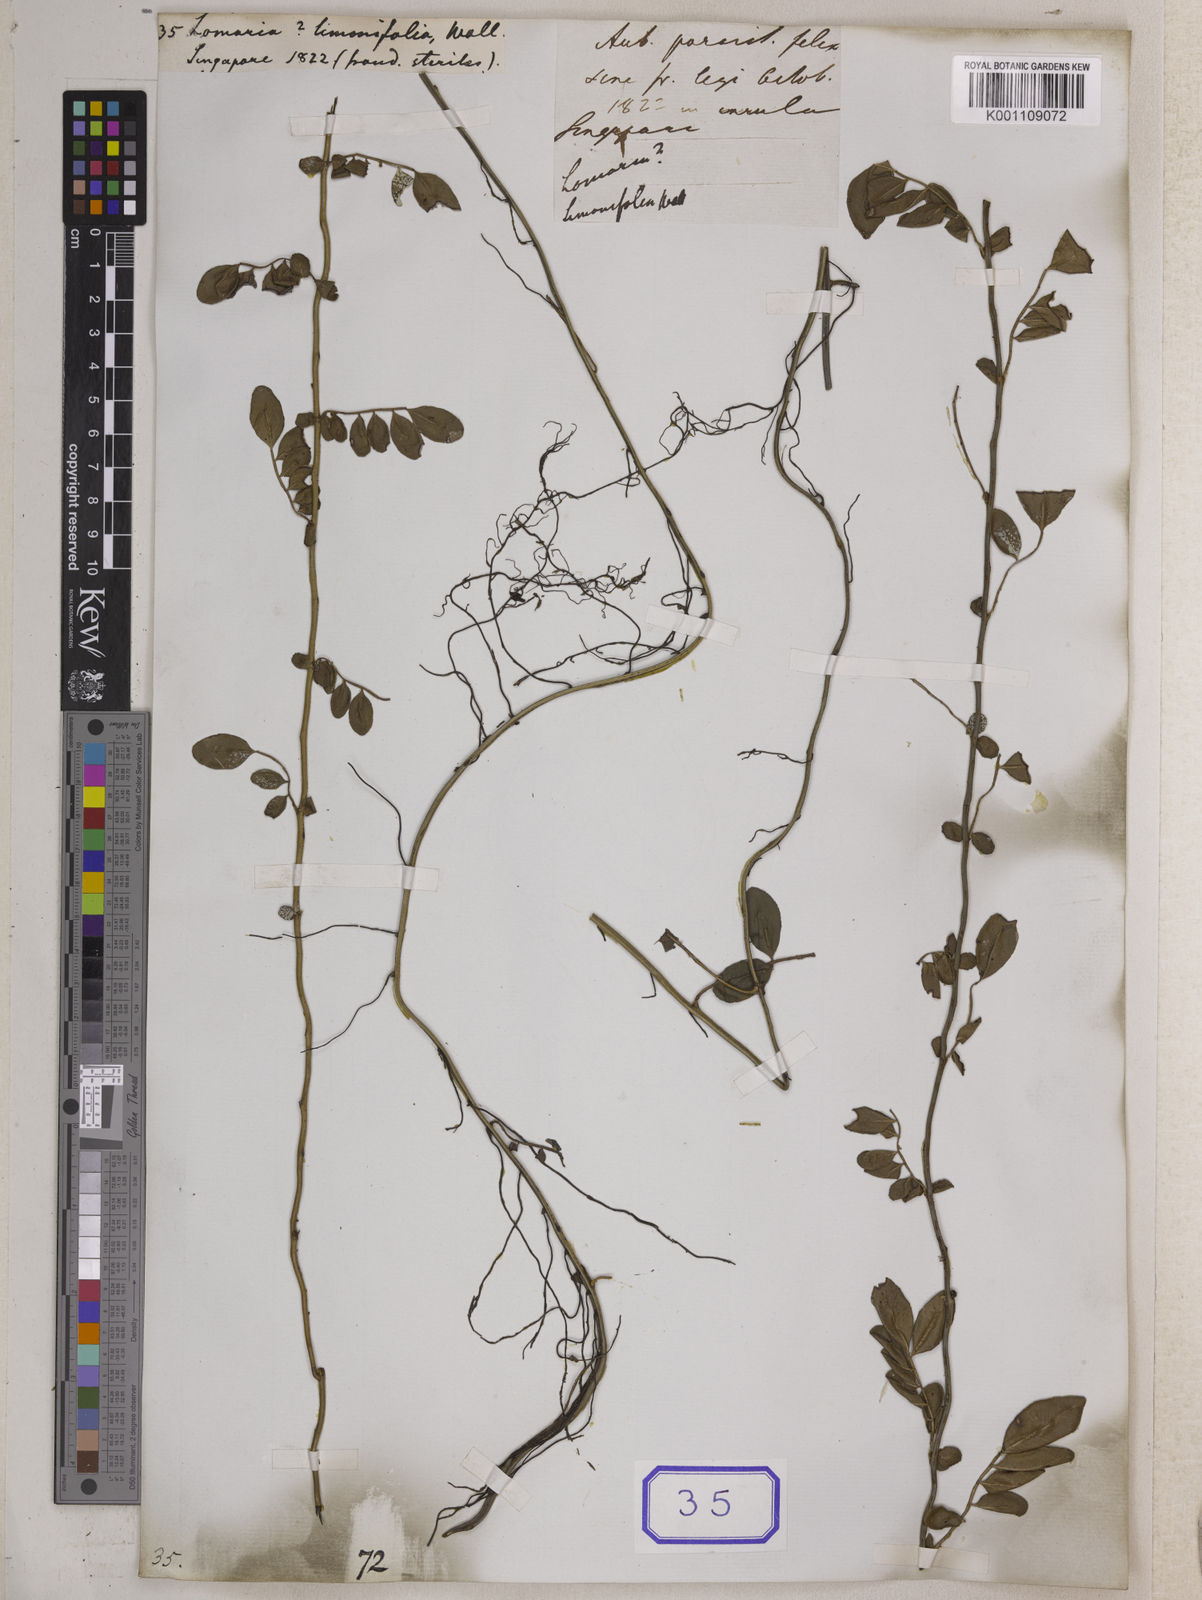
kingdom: Plantae
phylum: Tracheophyta
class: Polypodiopsida
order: Polypodiales
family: Dryopteridaceae
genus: Teratophyllum
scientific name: Teratophyllum ludens
